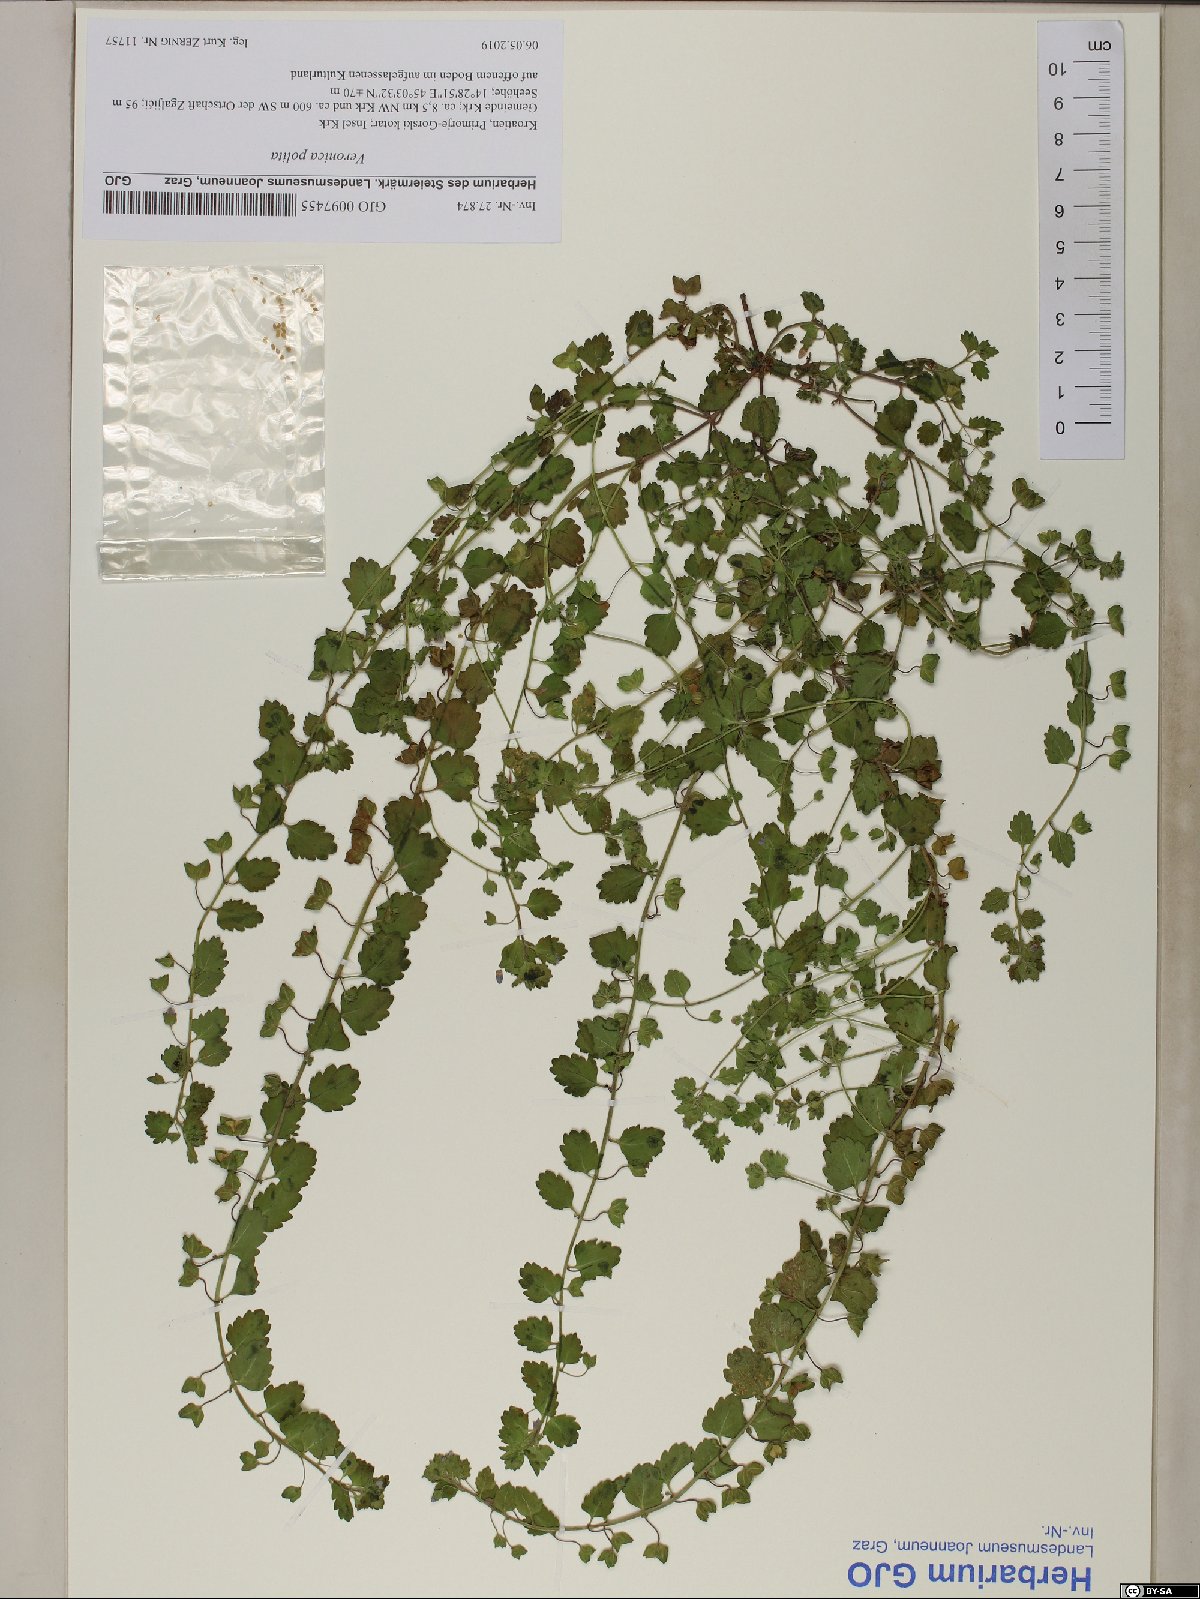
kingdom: Plantae
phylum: Tracheophyta
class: Magnoliopsida
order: Lamiales
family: Plantaginaceae
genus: Veronica
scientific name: Veronica polita
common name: Grey field-speedwell
